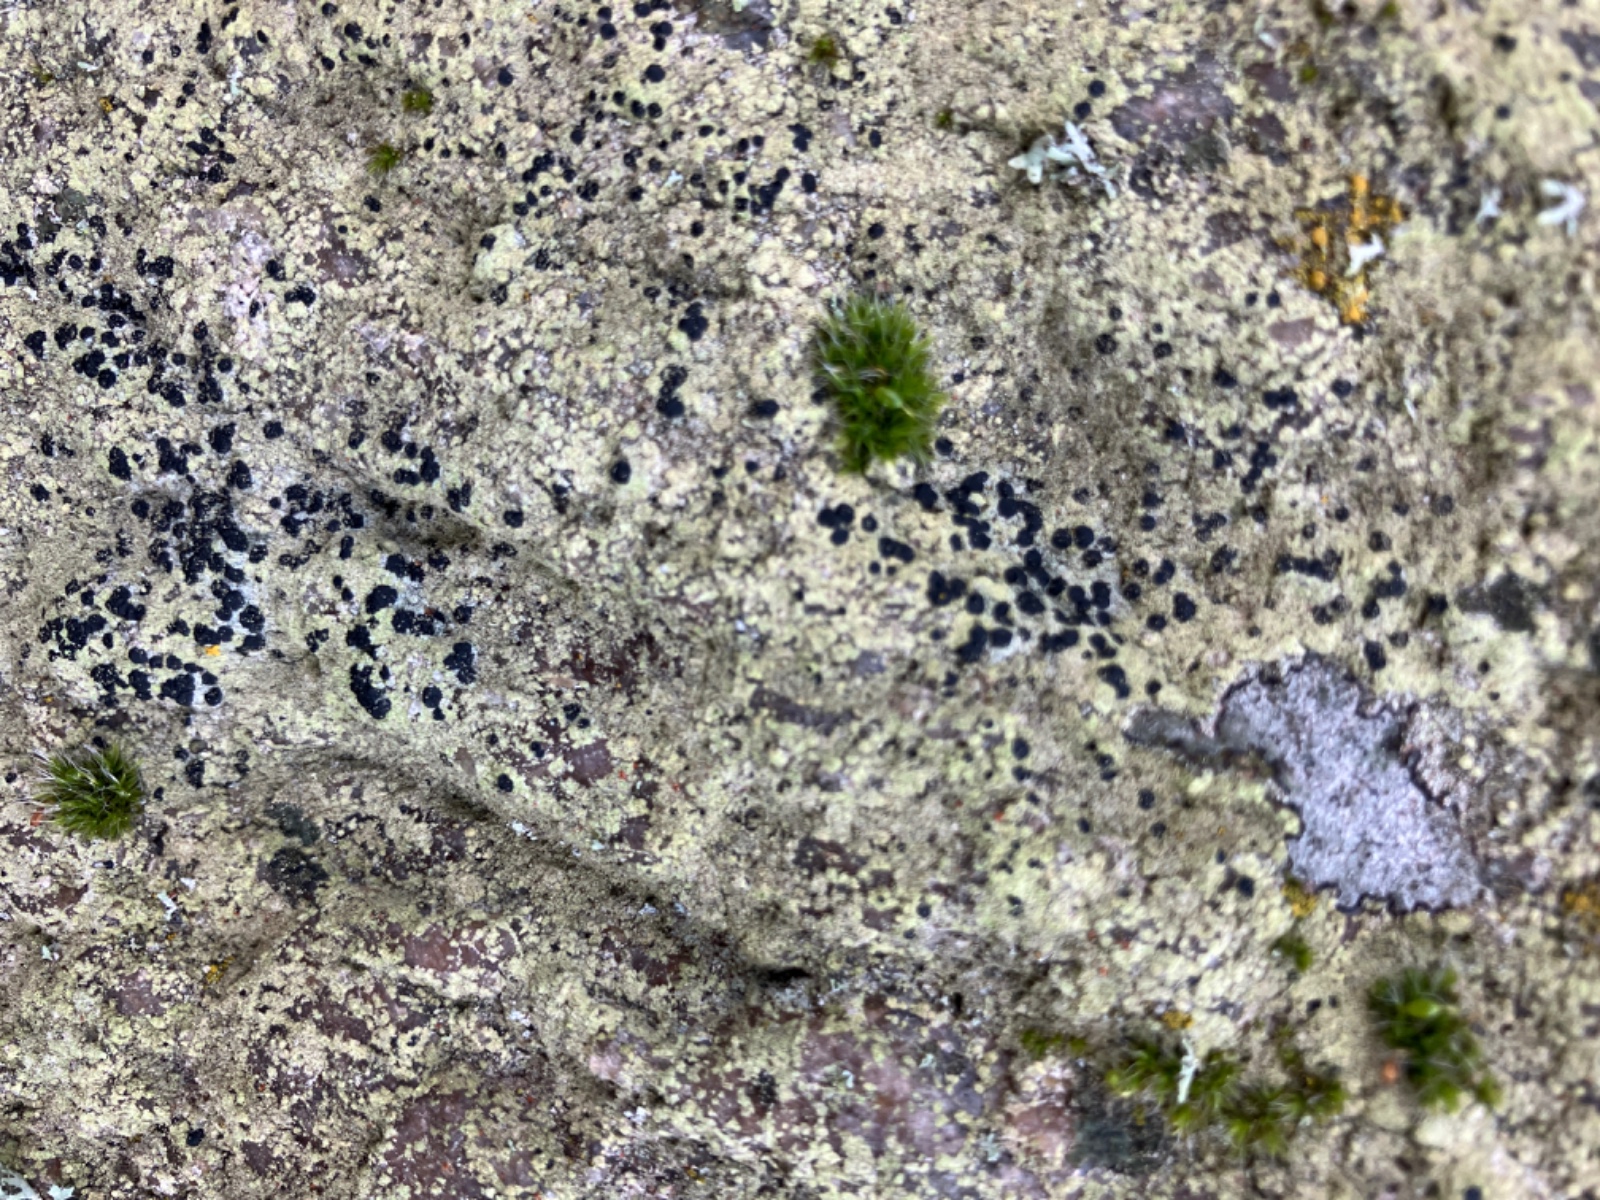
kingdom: Fungi
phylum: Ascomycota
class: Lecanoromycetes
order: Lecanorales
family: Lecanoraceae
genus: Lecidella
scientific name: Lecidella scabra
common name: skurvet skivelav
